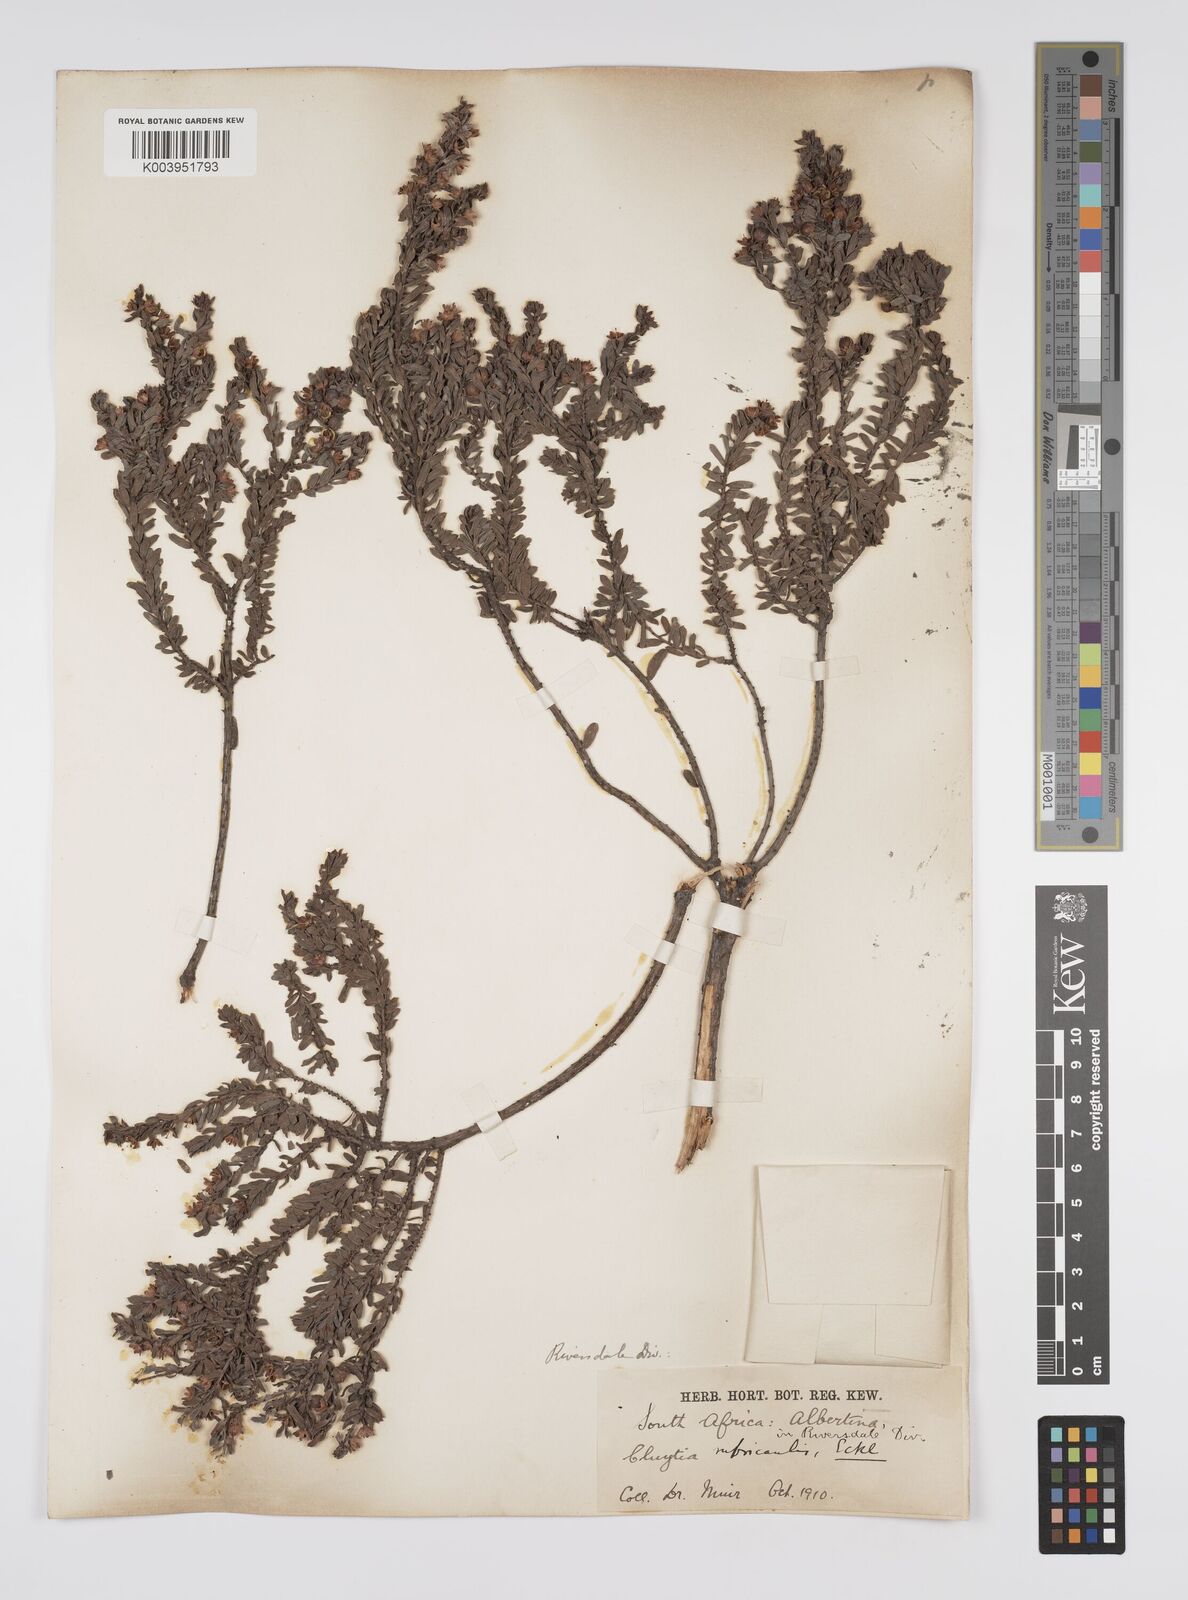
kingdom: Plantae
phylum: Tracheophyta
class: Magnoliopsida
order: Malpighiales
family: Peraceae
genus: Clutia
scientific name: Clutia rubricaulis
